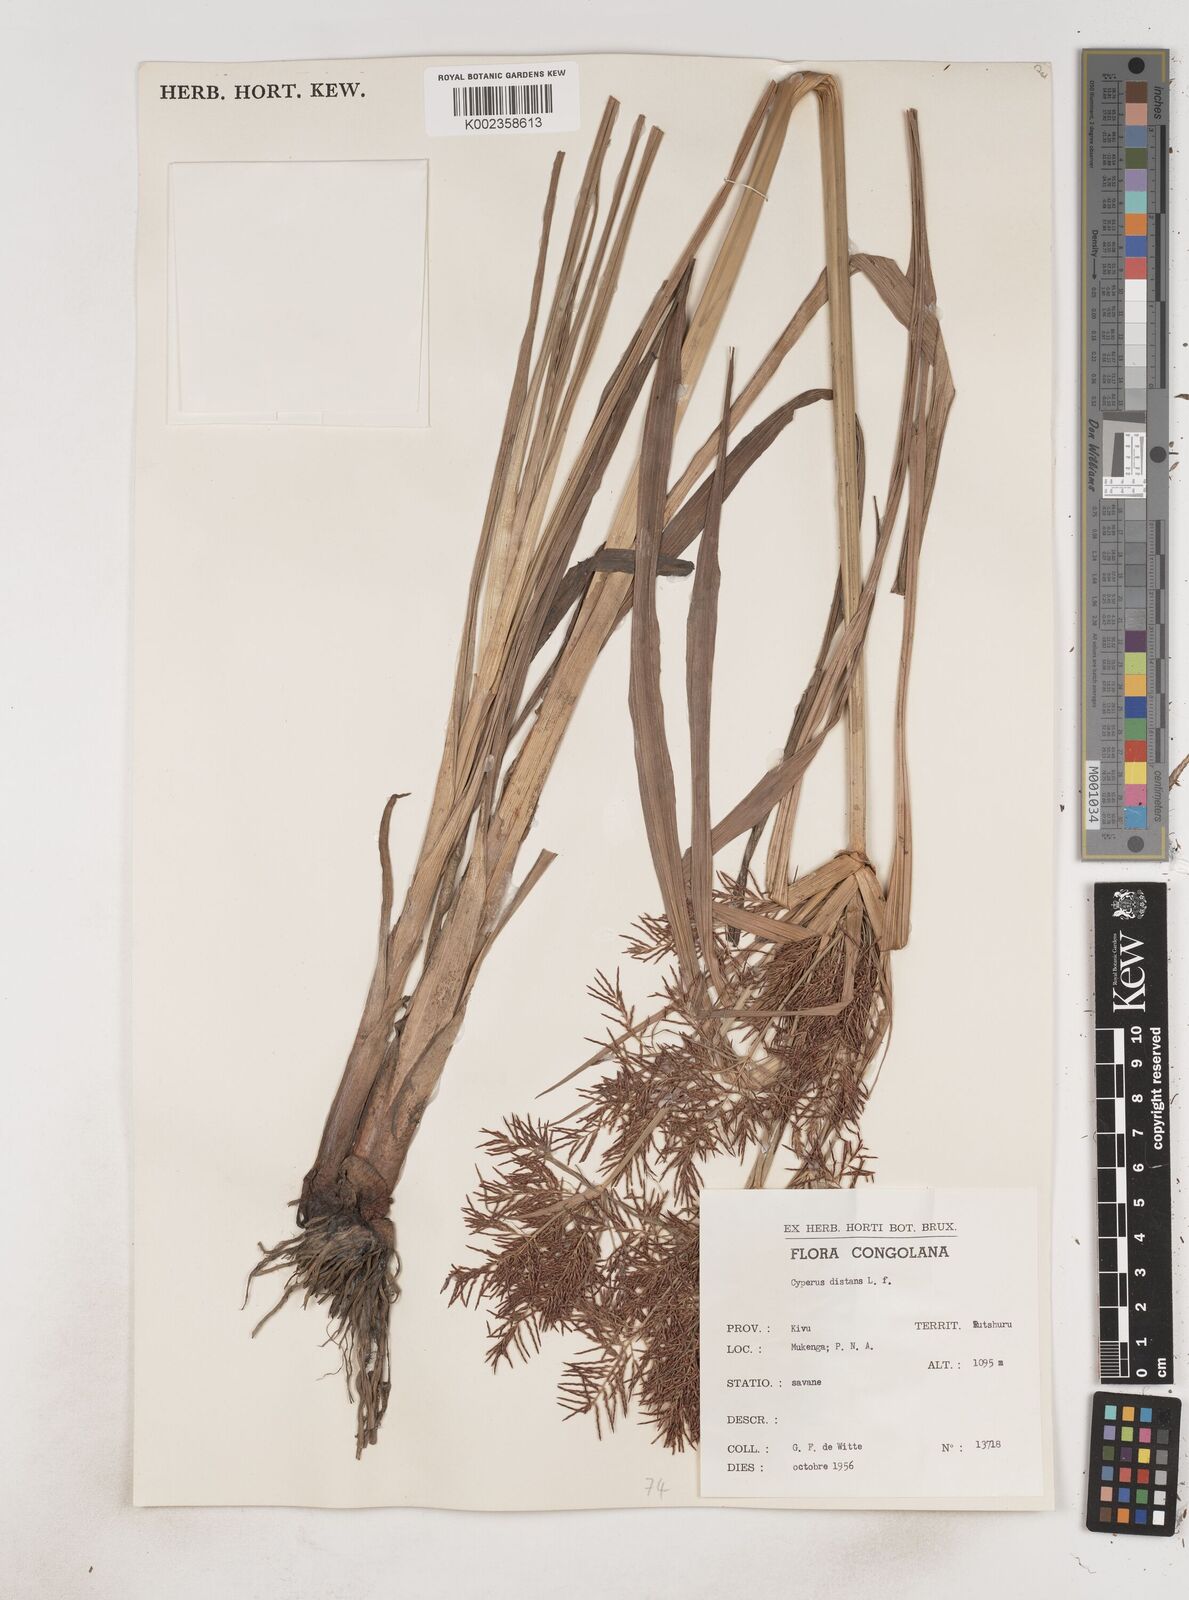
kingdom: Plantae
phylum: Tracheophyta
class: Liliopsida
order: Poales
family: Cyperaceae
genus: Cyperus
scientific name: Cyperus distans
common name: Slender cyperus
